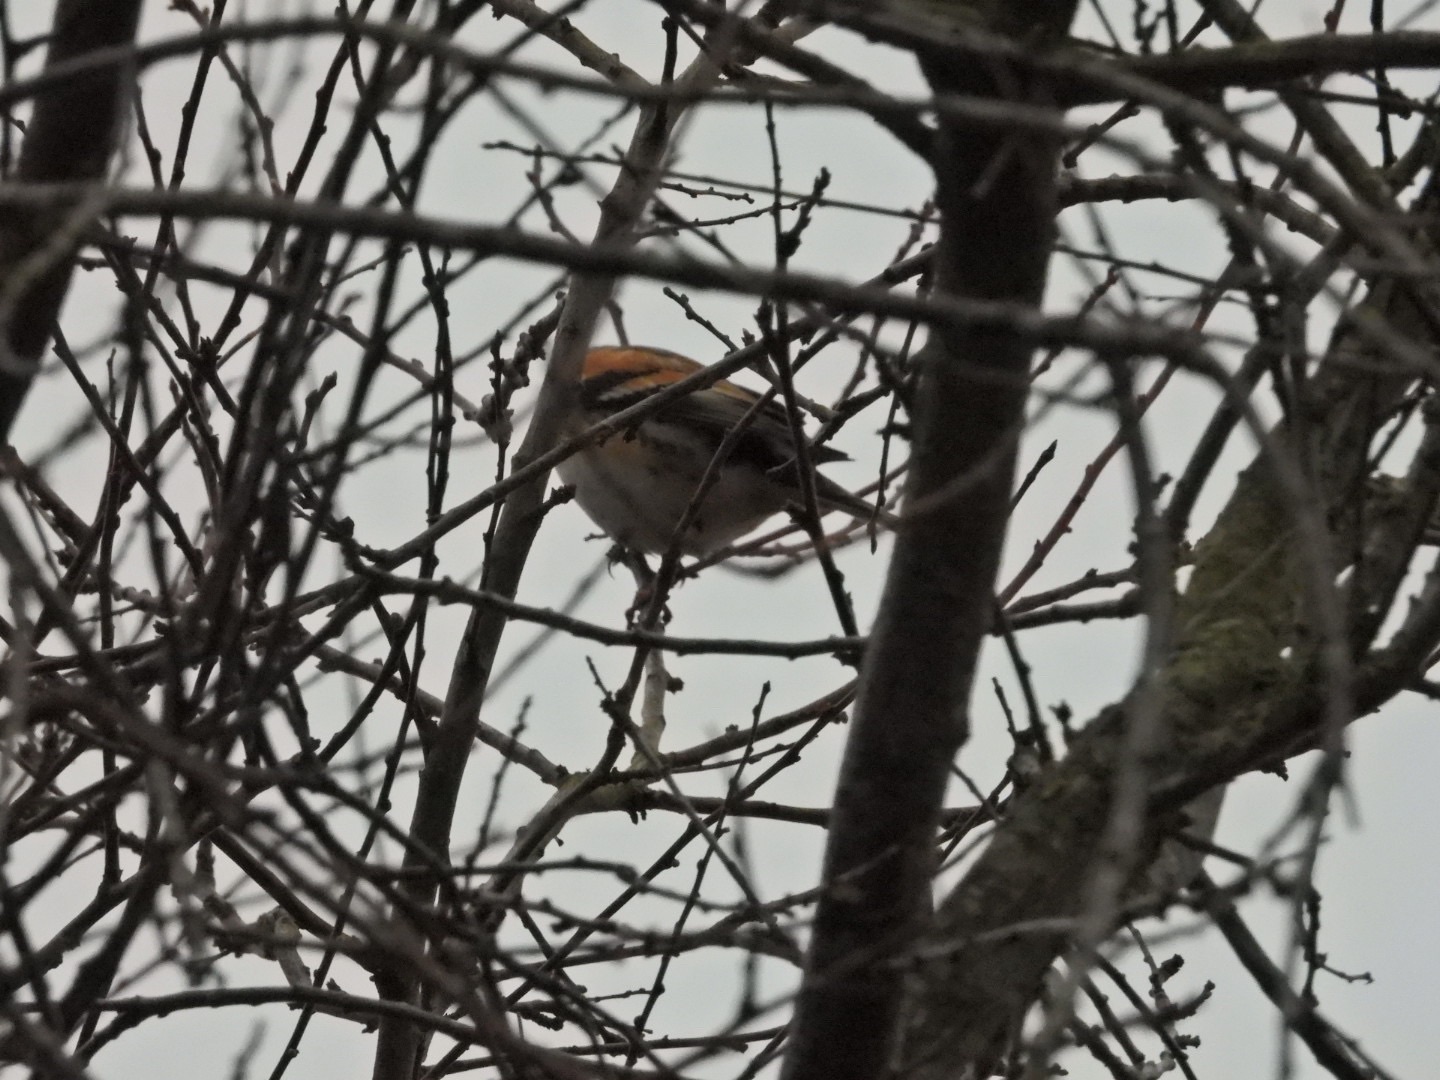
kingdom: Animalia
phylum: Chordata
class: Aves
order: Passeriformes
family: Fringillidae
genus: Fringilla
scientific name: Fringilla montifringilla
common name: Kvækerfinke
